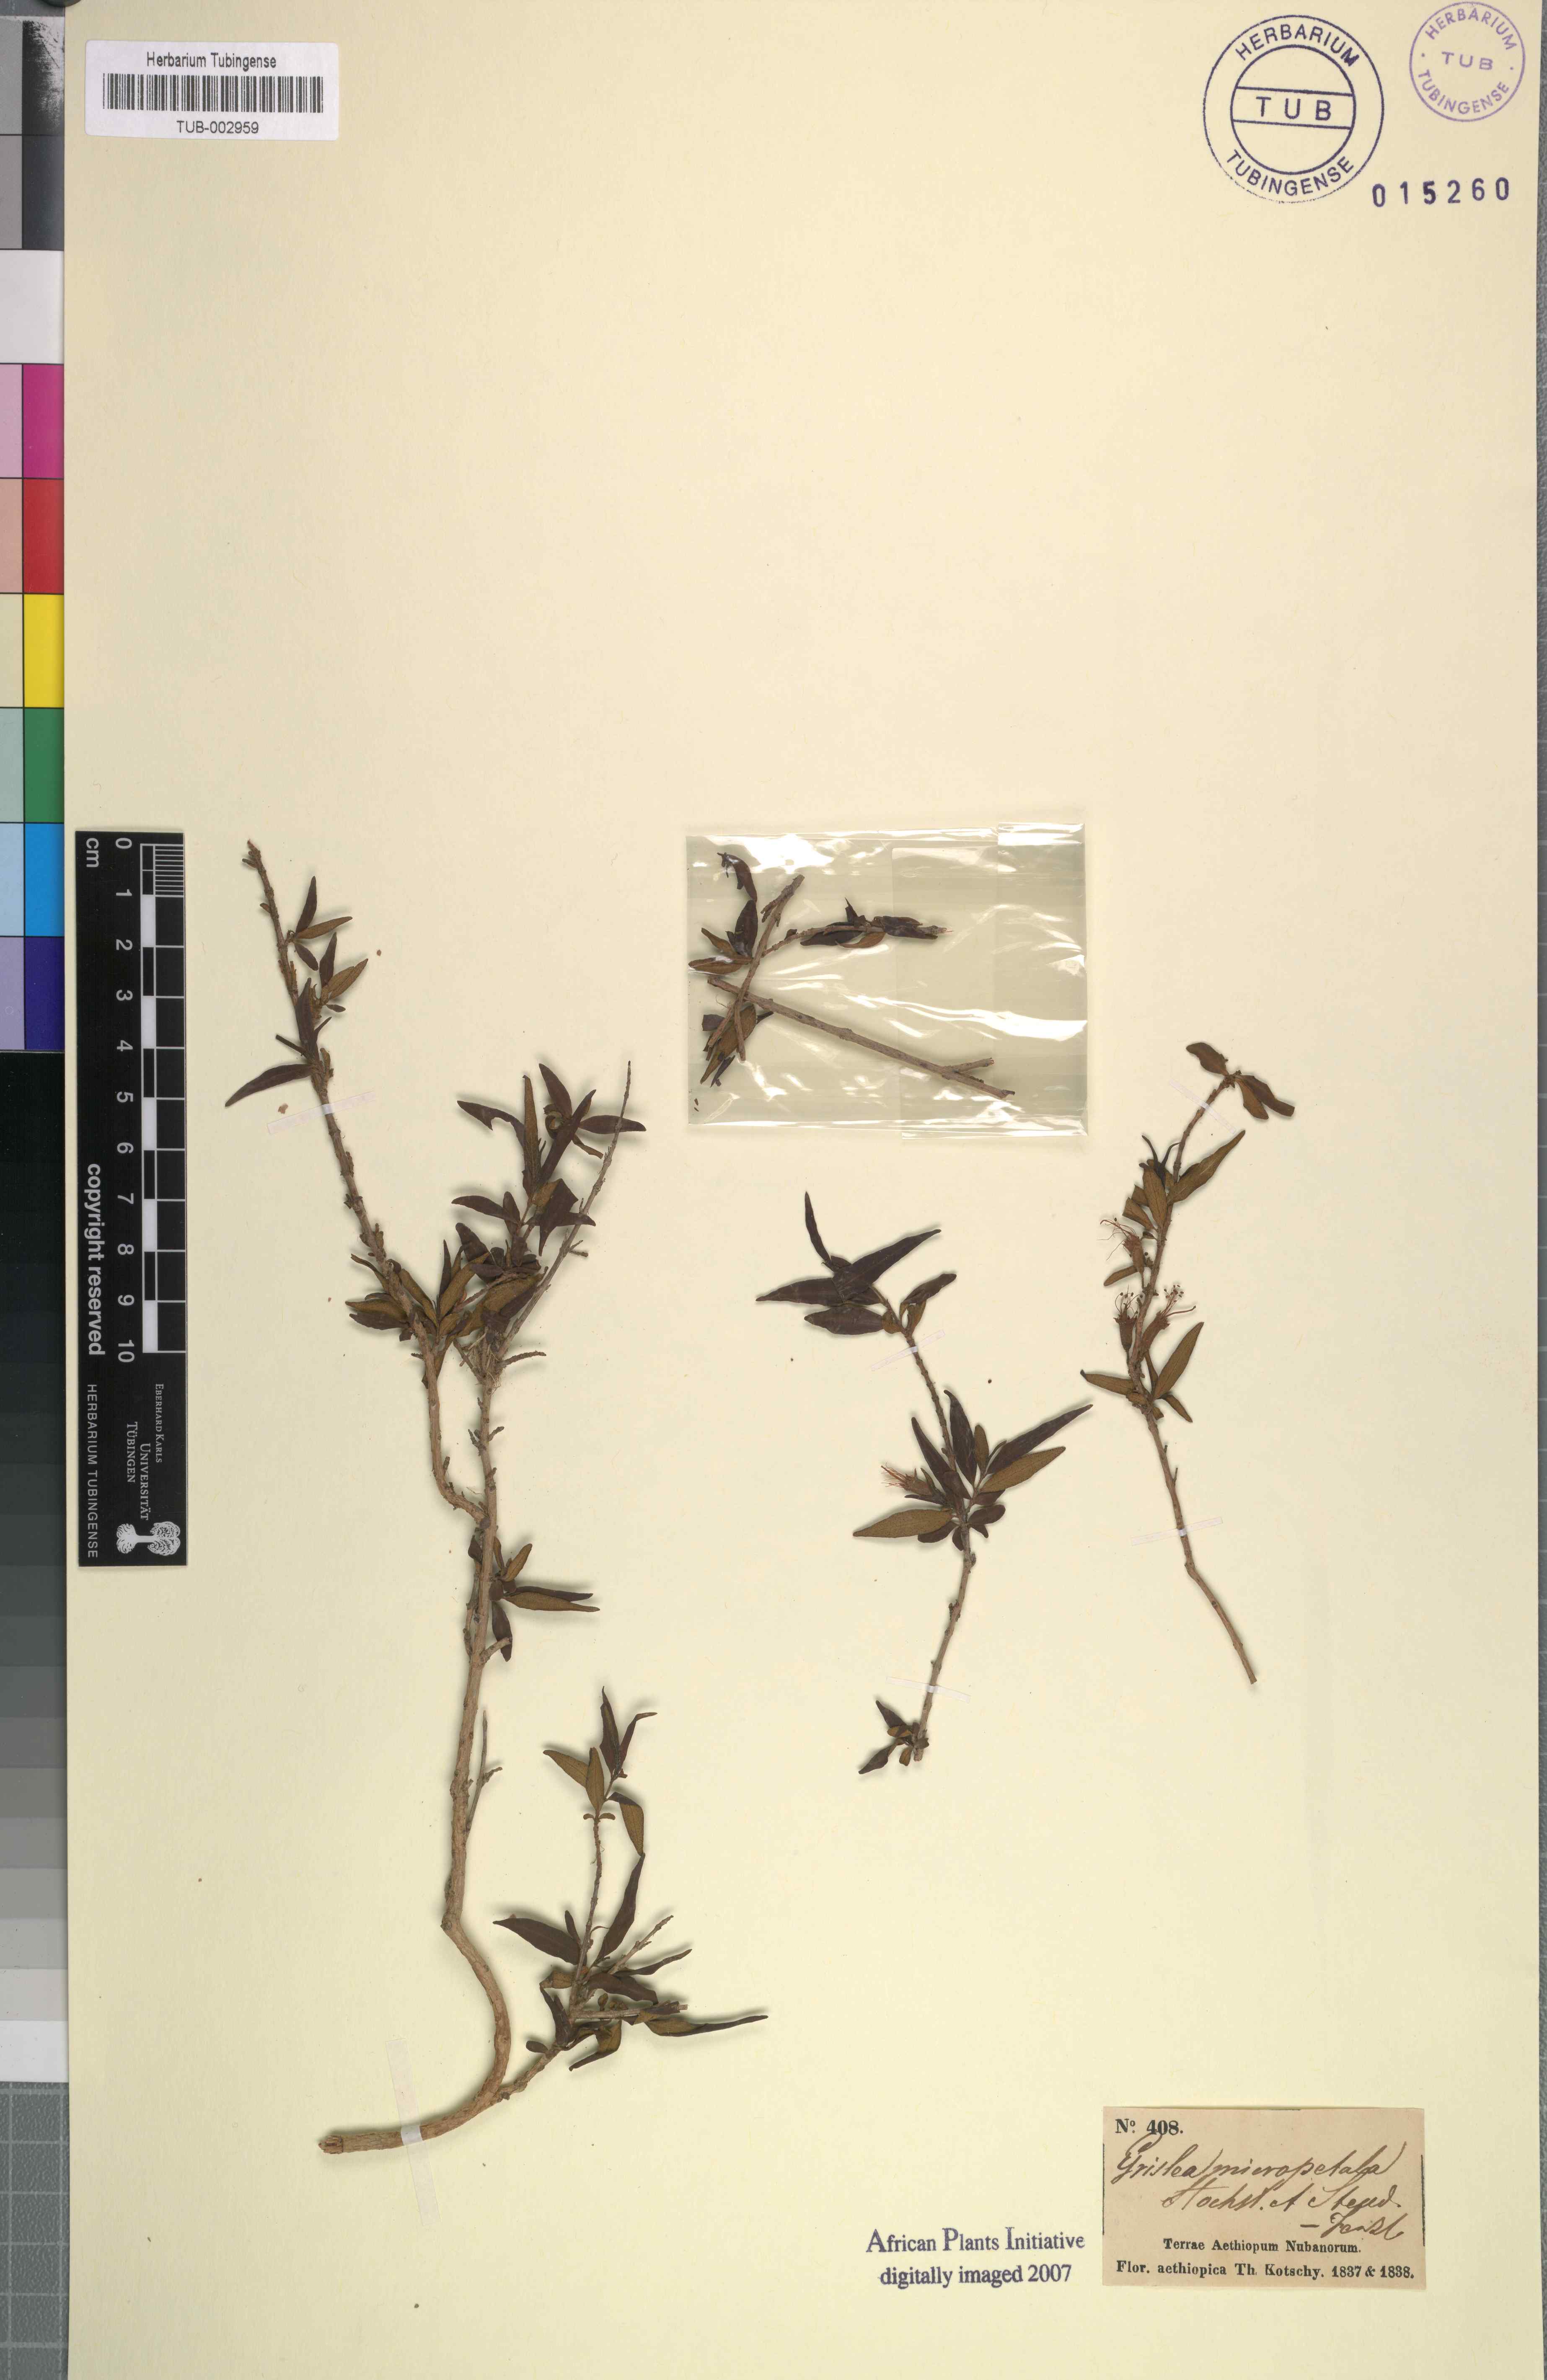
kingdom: Plantae
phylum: Tracheophyta
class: Magnoliopsida
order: Myrtales
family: Lythraceae
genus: Woodfordia
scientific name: Woodfordia uniflora
